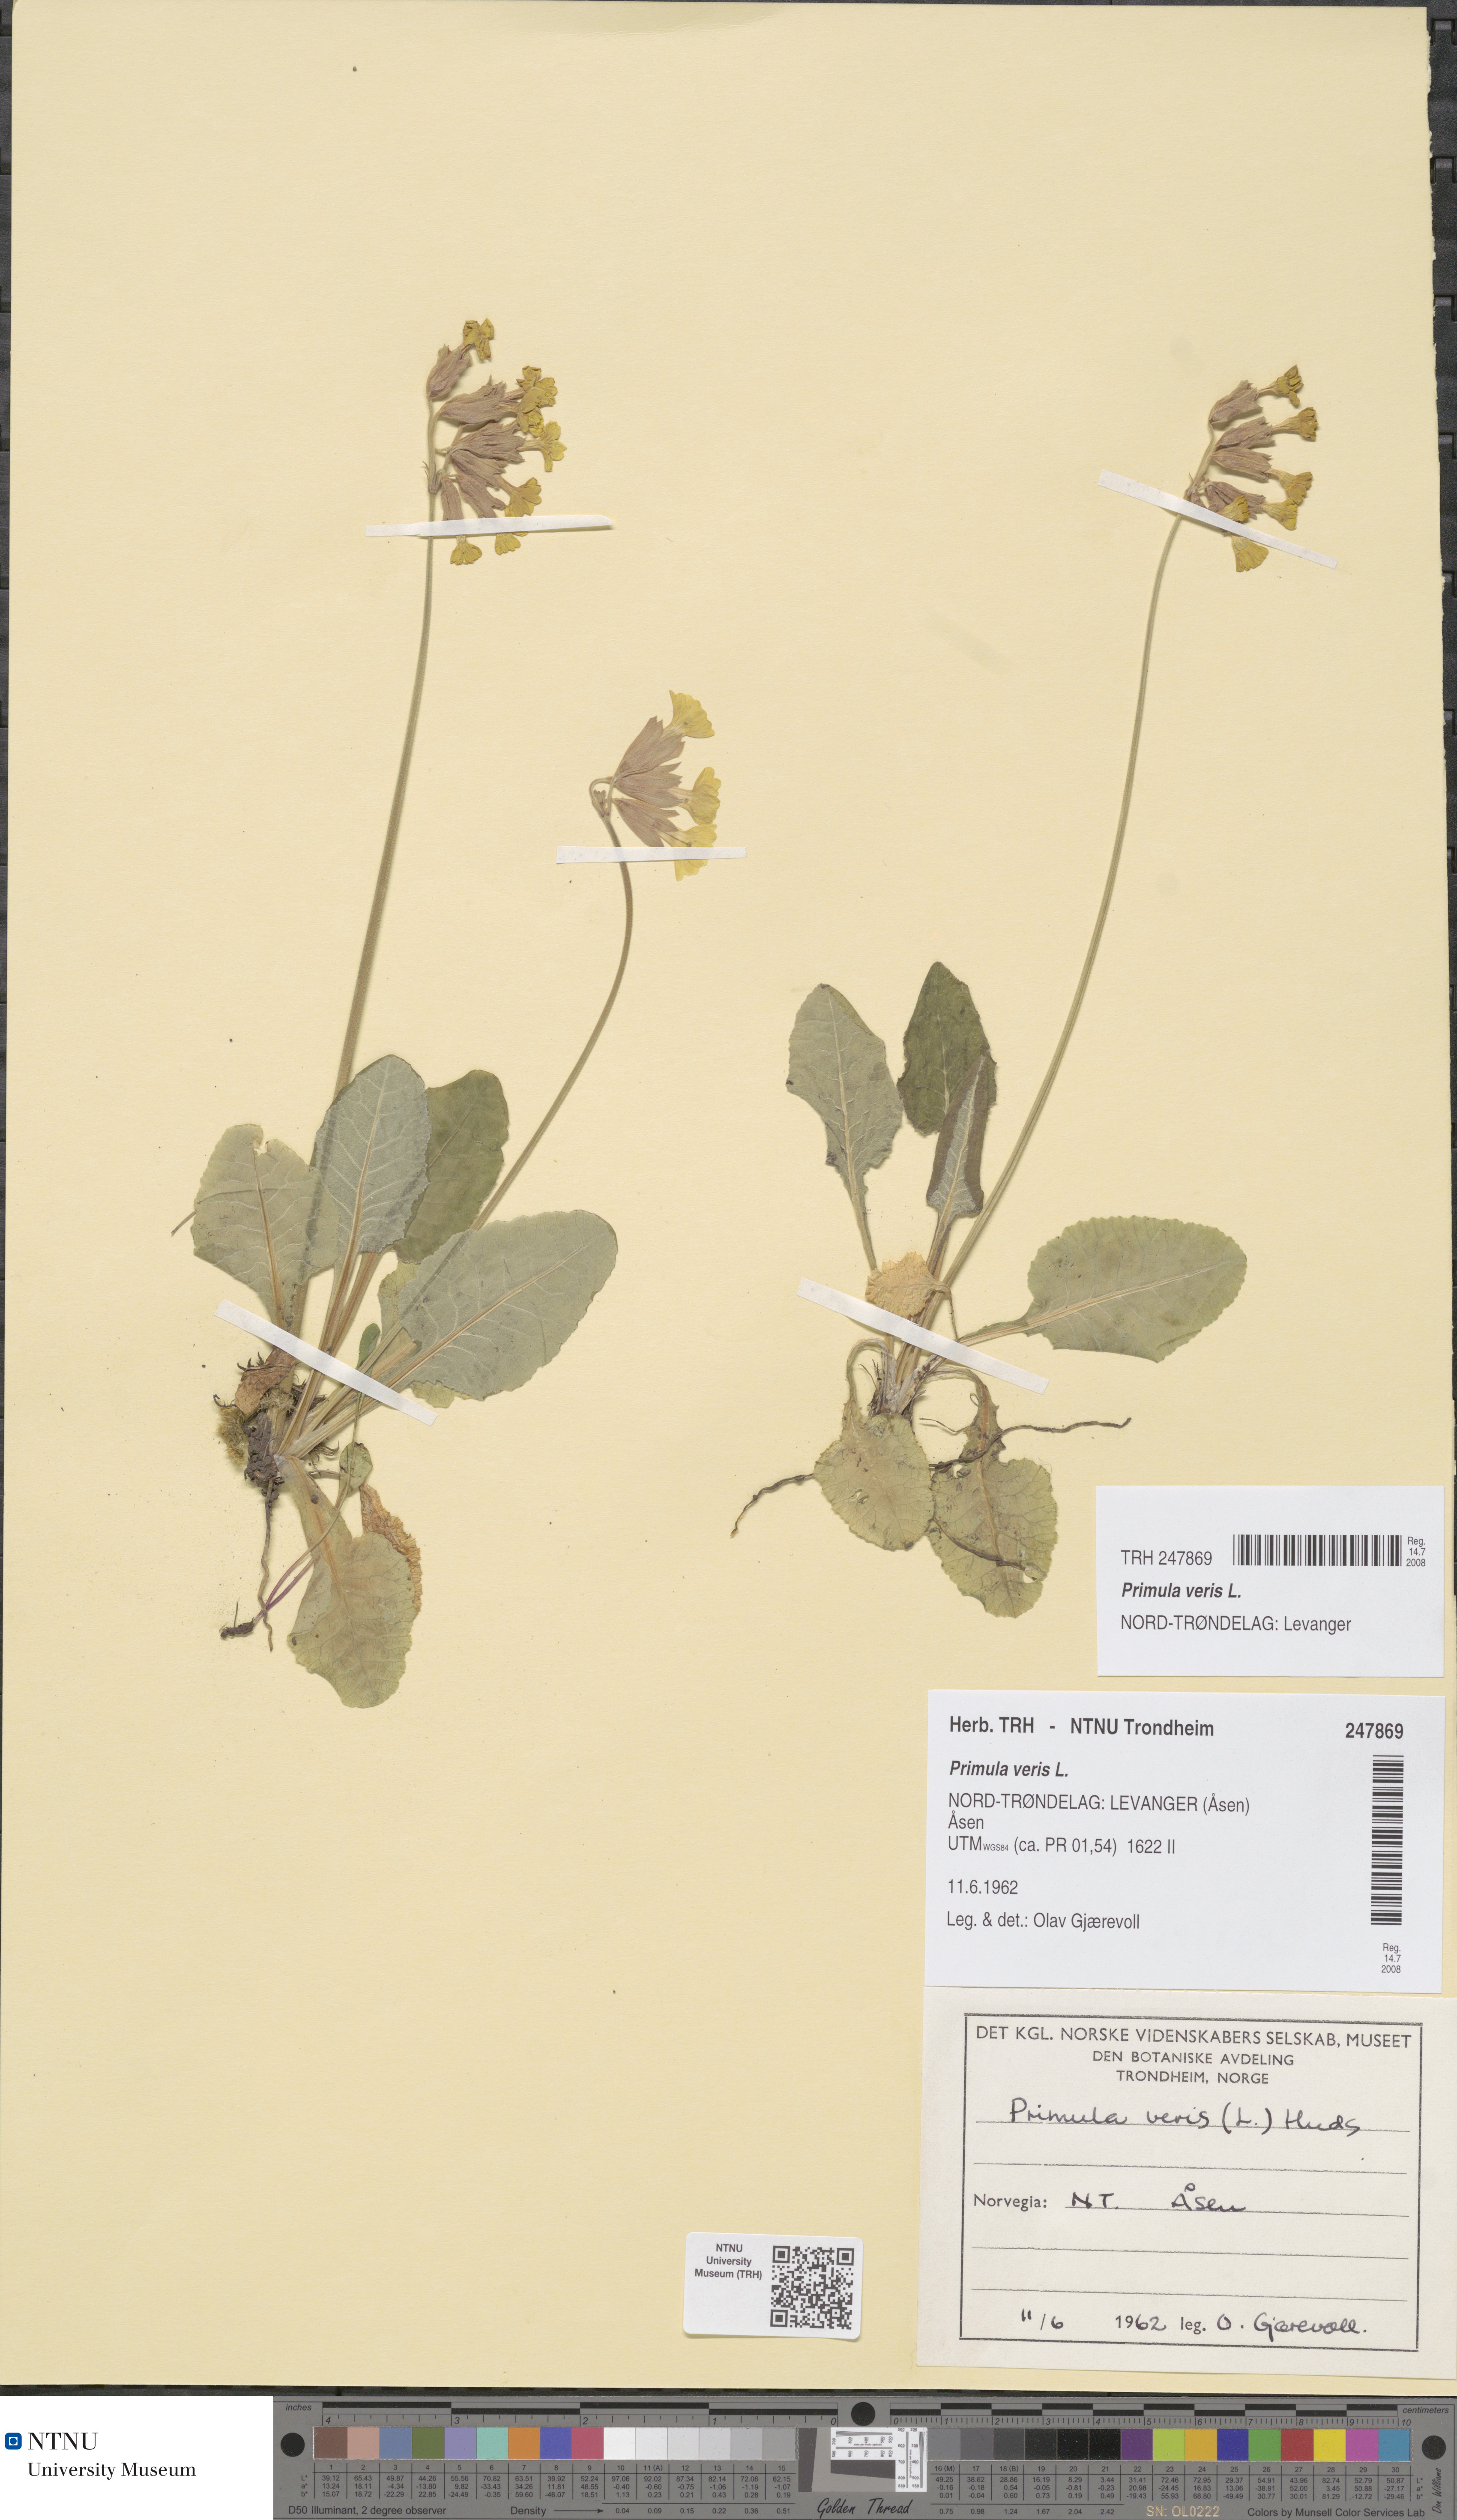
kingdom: Plantae
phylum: Tracheophyta
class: Magnoliopsida
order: Ericales
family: Primulaceae
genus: Primula
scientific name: Primula veris
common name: Cowslip
